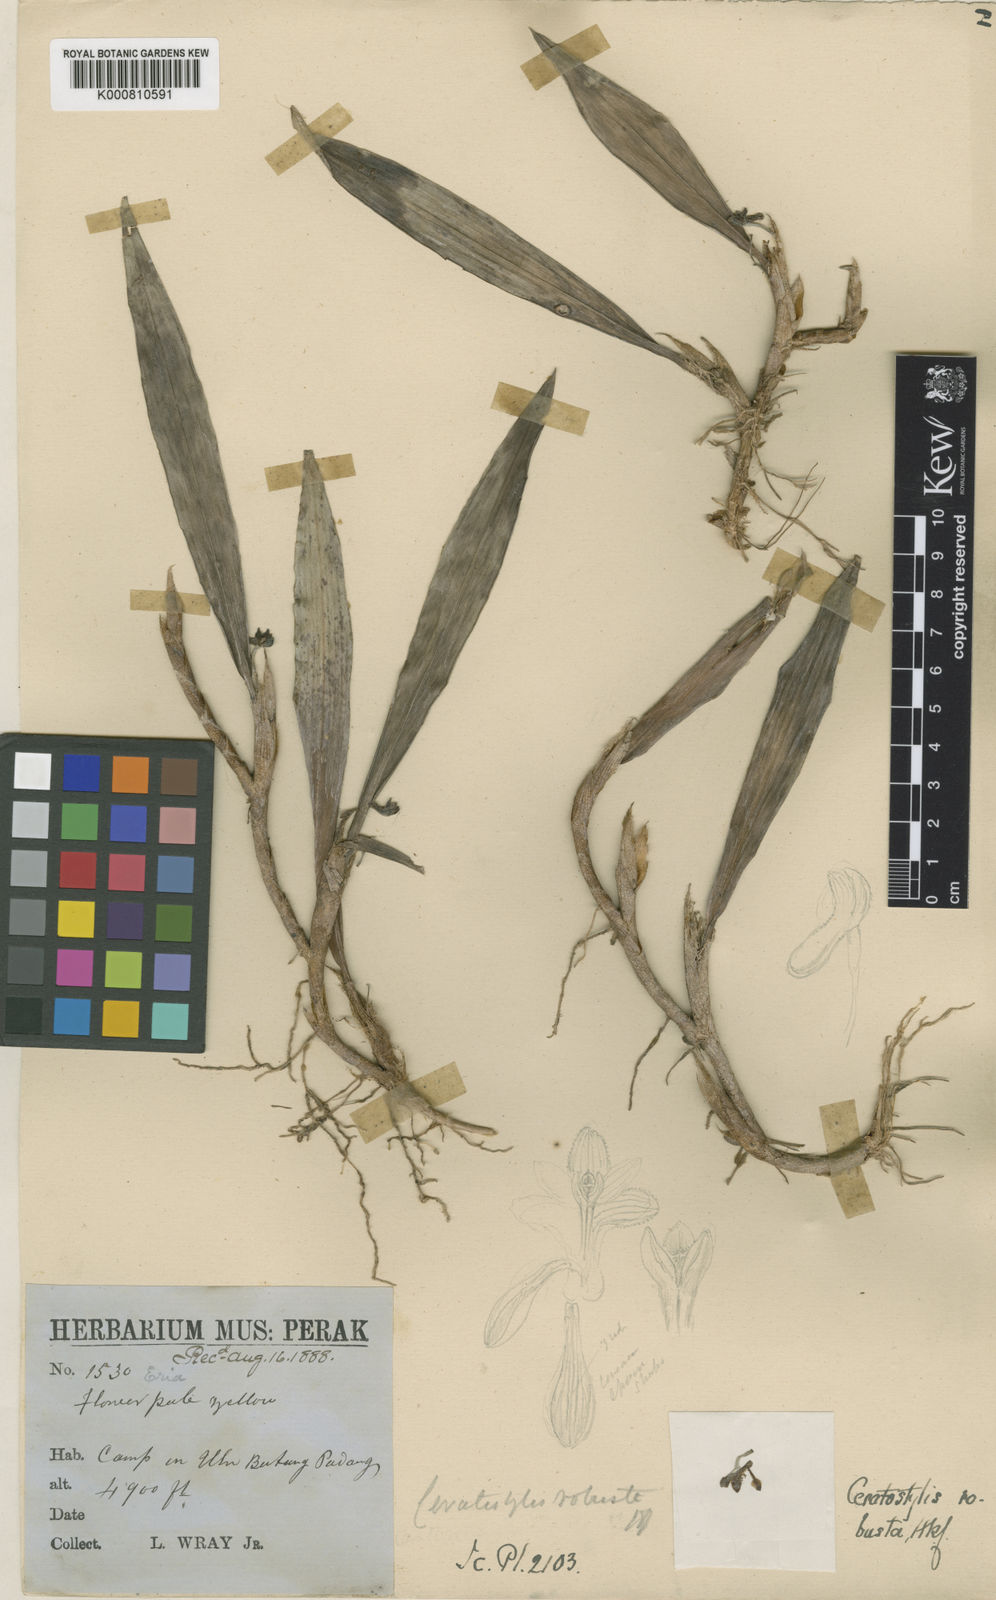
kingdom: Plantae
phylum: Tracheophyta
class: Liliopsida
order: Asparagales
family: Orchidaceae
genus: Ceratostylis
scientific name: Ceratostylis robusta
